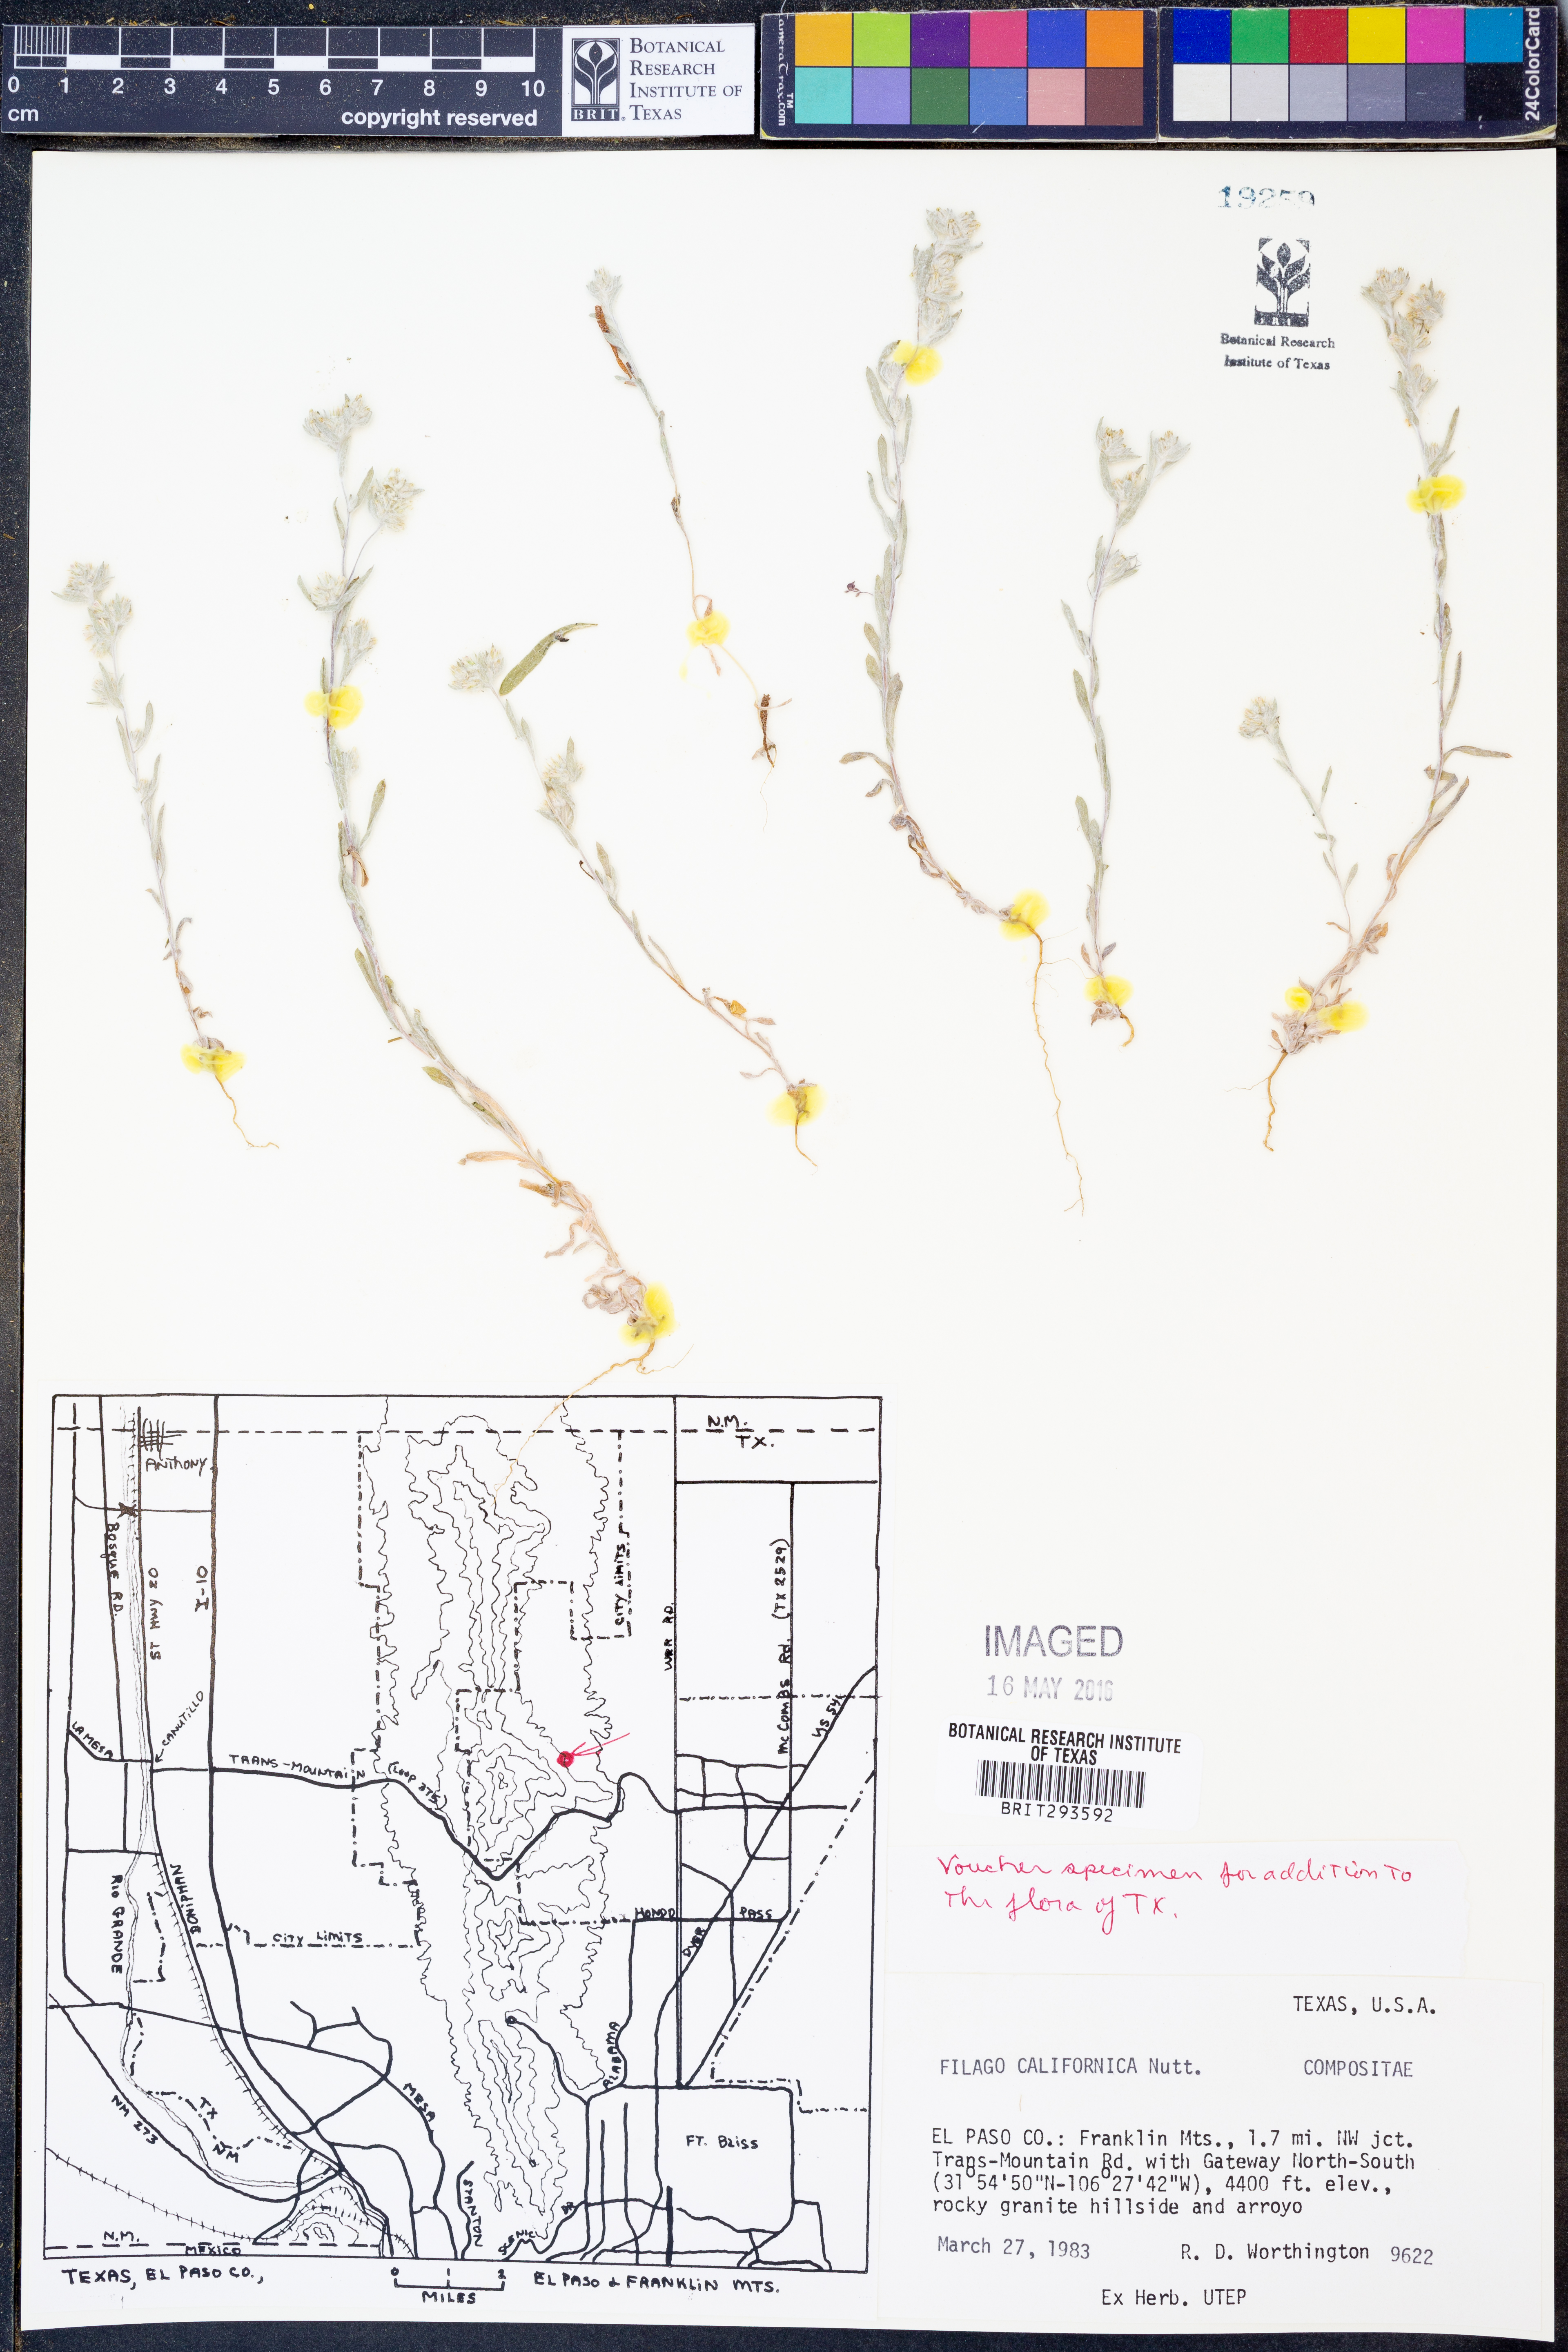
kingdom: Plantae
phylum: Tracheophyta
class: Magnoliopsida
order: Asterales
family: Asteraceae
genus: Logfia
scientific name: Logfia californica
